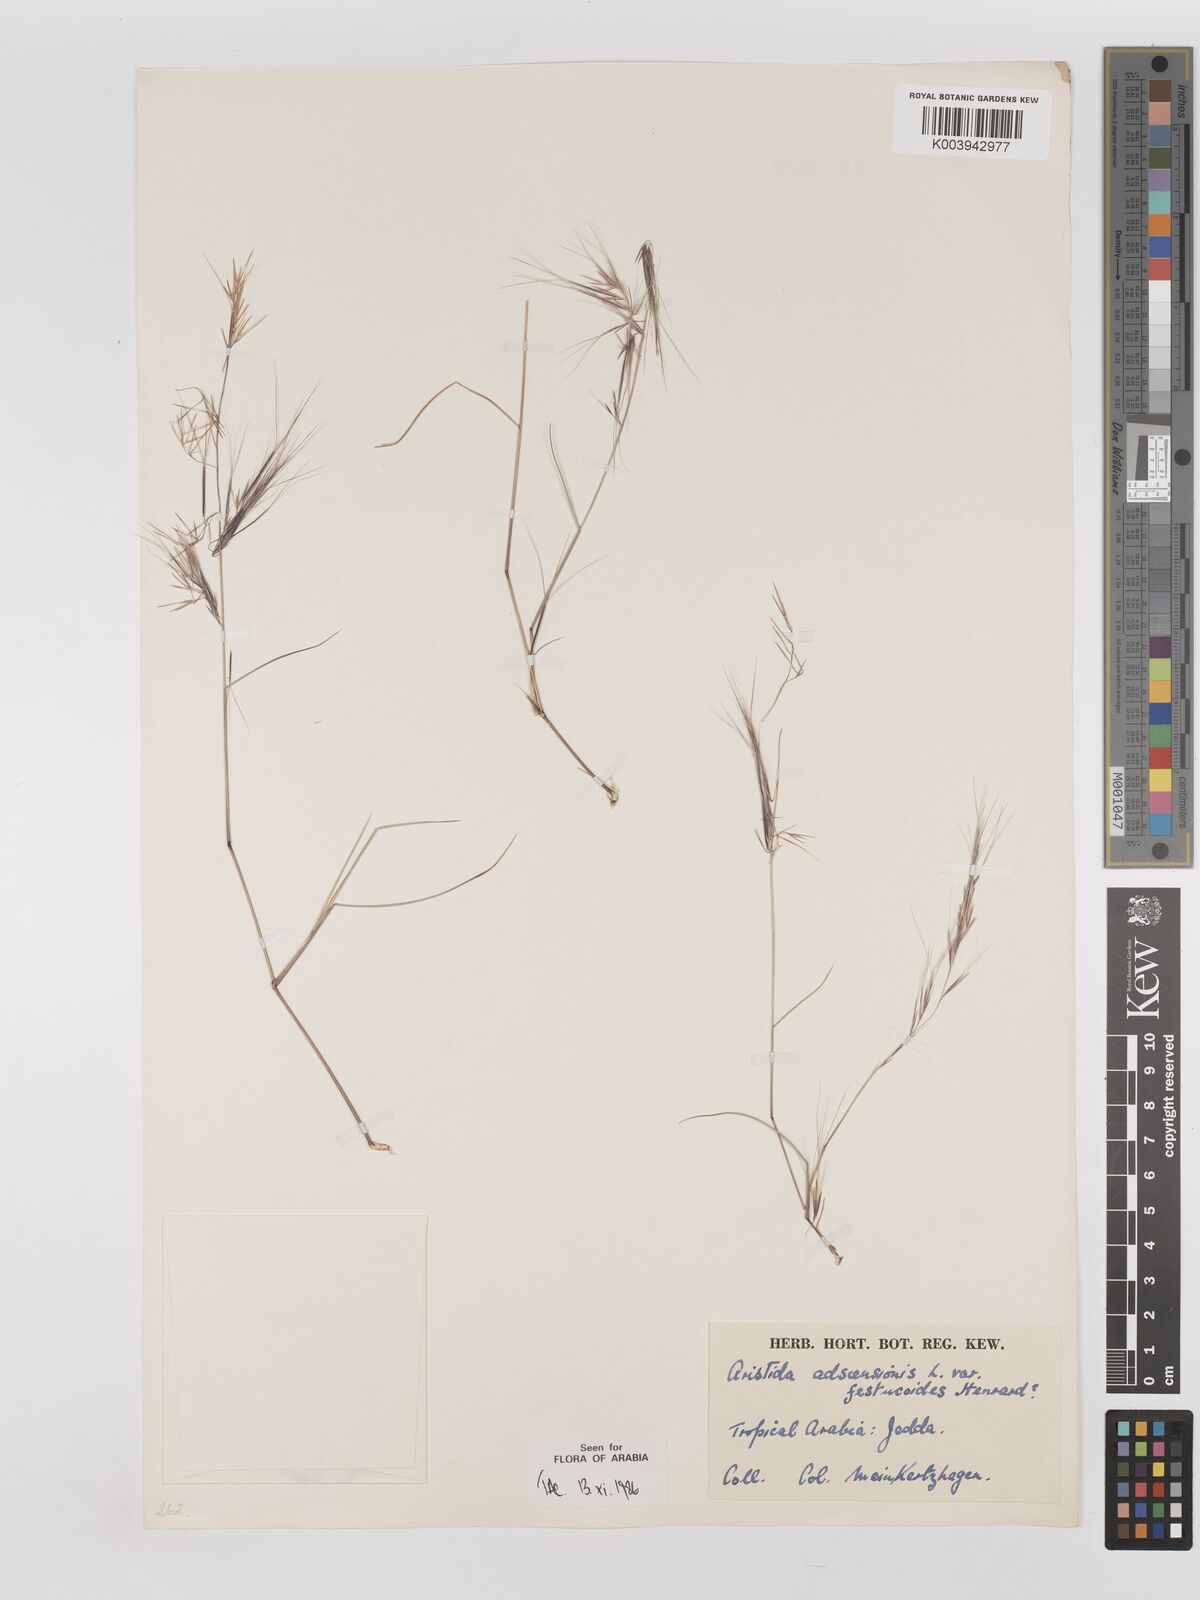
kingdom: Plantae
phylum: Tracheophyta
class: Liliopsida
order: Poales
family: Poaceae
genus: Aristida
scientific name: Aristida adscensionis
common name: Sixweeks threeawn
